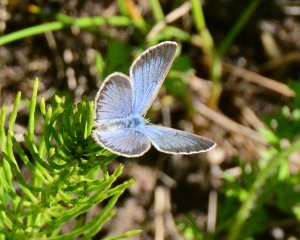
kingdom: Animalia
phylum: Arthropoda
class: Insecta
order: Lepidoptera
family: Lycaenidae
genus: Glaucopsyche
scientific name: Glaucopsyche lygdamus
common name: Silvery Blue
